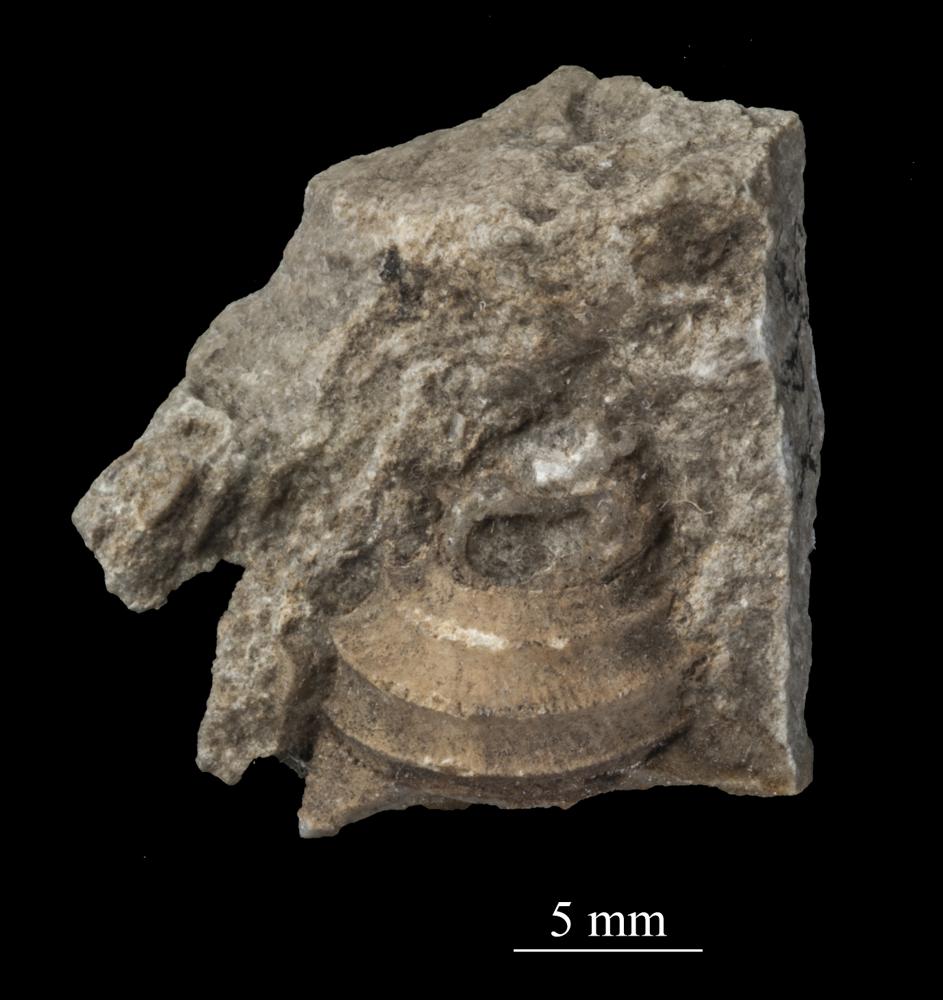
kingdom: Animalia
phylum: Mollusca
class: Gastropoda
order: Trochida
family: Trochidae
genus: Trochus
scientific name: Trochus
